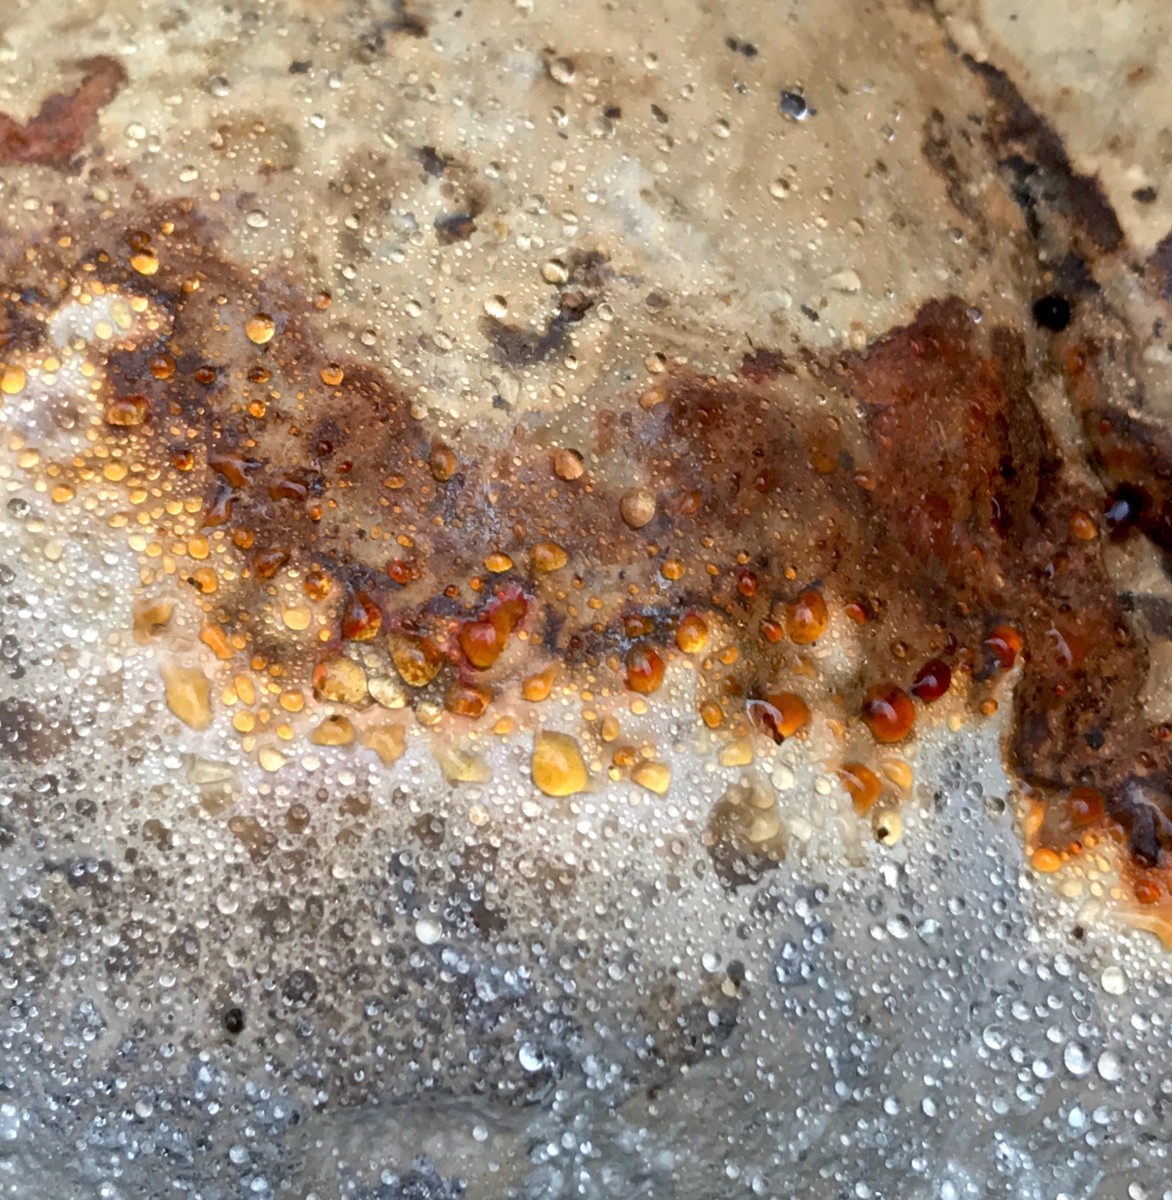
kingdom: Fungi
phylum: Basidiomycota
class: Agaricomycetes
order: Polyporales
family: Polyporaceae
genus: Fomes
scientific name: Fomes fomentarius
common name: tøndersvamp
